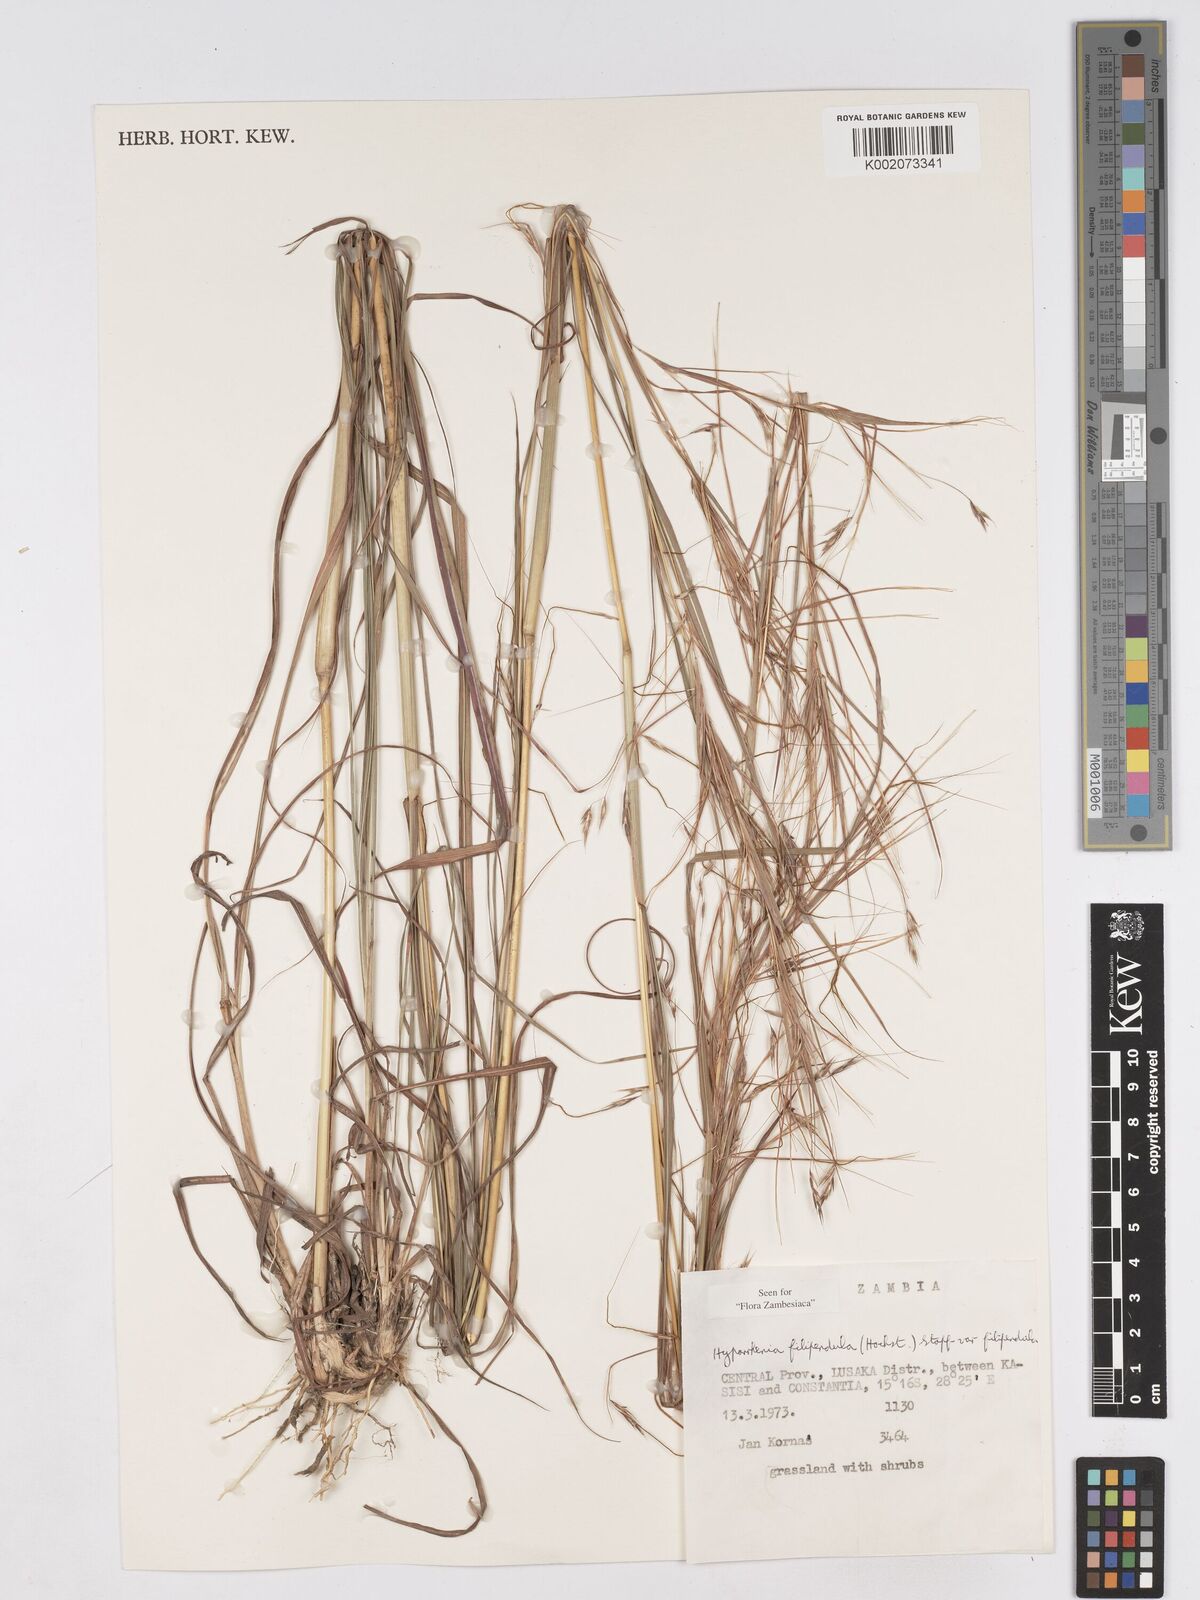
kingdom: Plantae
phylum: Tracheophyta
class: Liliopsida
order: Poales
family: Poaceae
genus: Hyparrhenia
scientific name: Hyparrhenia filipendula
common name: Tambookie grass
